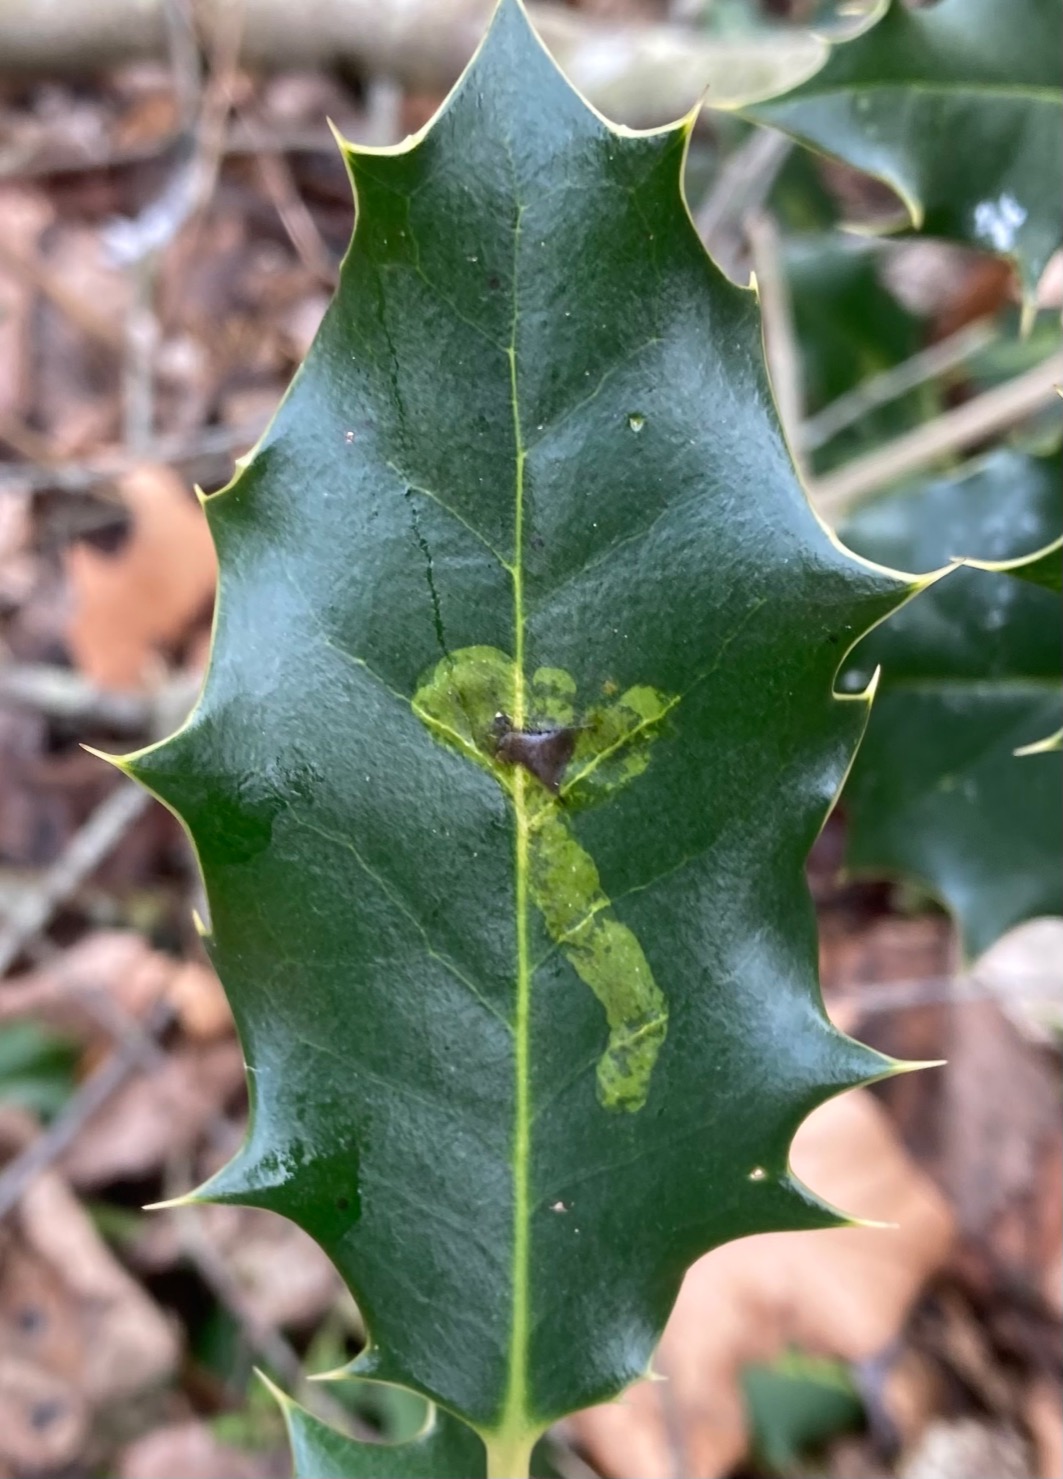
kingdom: Animalia
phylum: Arthropoda
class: Insecta
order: Diptera
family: Agromyzidae
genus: Phytomyza
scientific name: Phytomyza ilicis
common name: Kristtornminérflue
